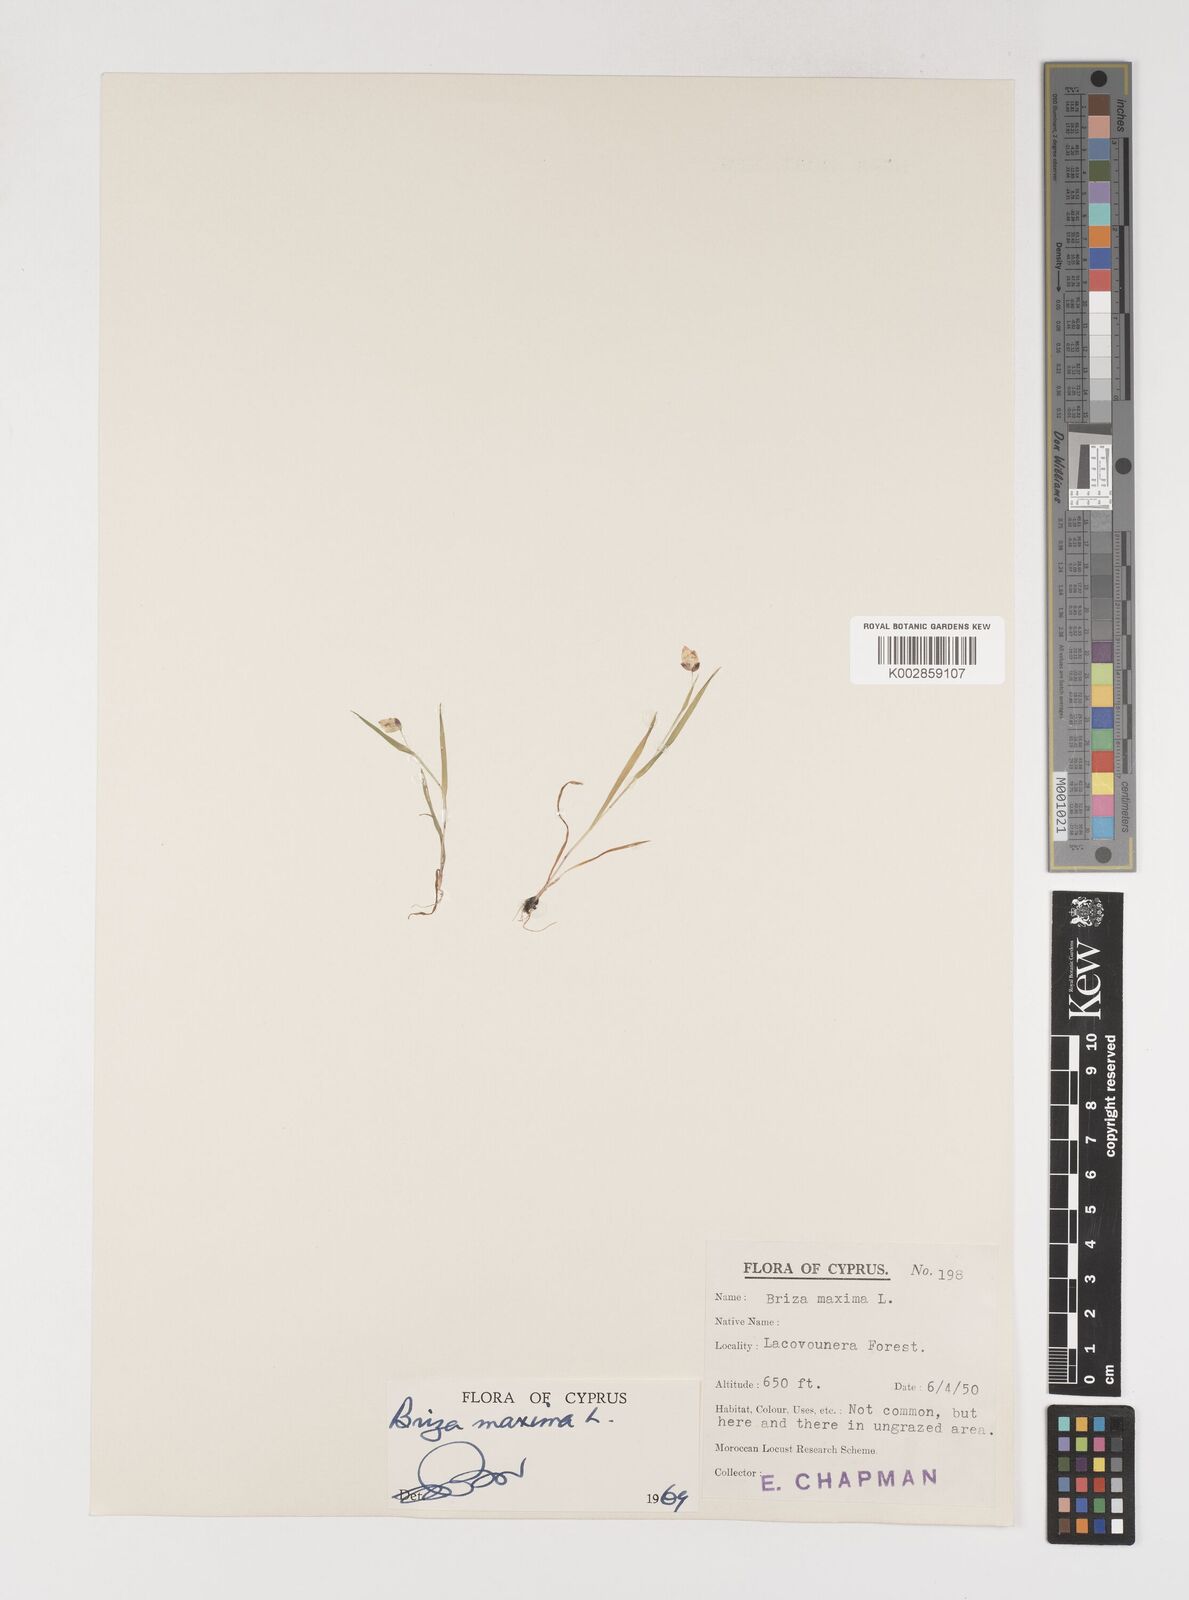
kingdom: Plantae
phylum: Tracheophyta
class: Liliopsida
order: Poales
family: Poaceae
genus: Briza
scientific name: Briza maxima
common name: Big quakinggrass
